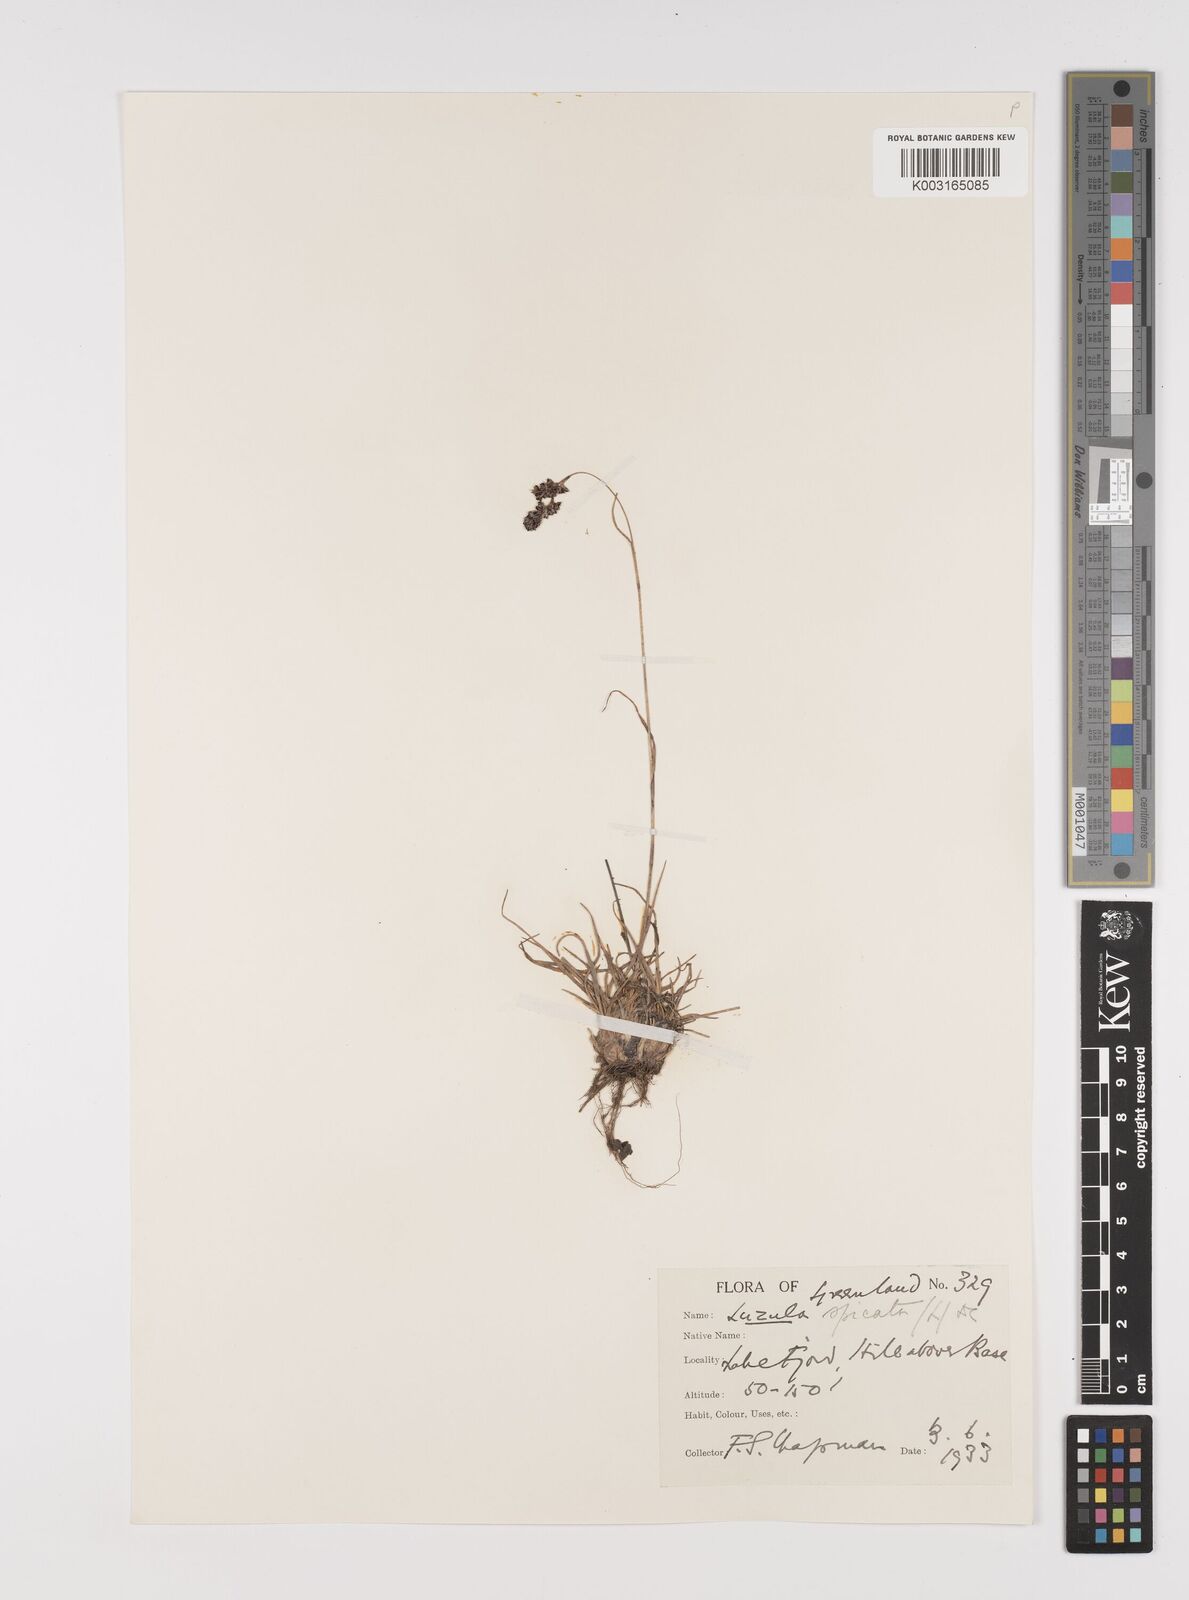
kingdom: Plantae
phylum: Tracheophyta
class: Liliopsida
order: Poales
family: Juncaceae
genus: Luzula
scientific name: Luzula spicata
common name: Spiked wood-rush
